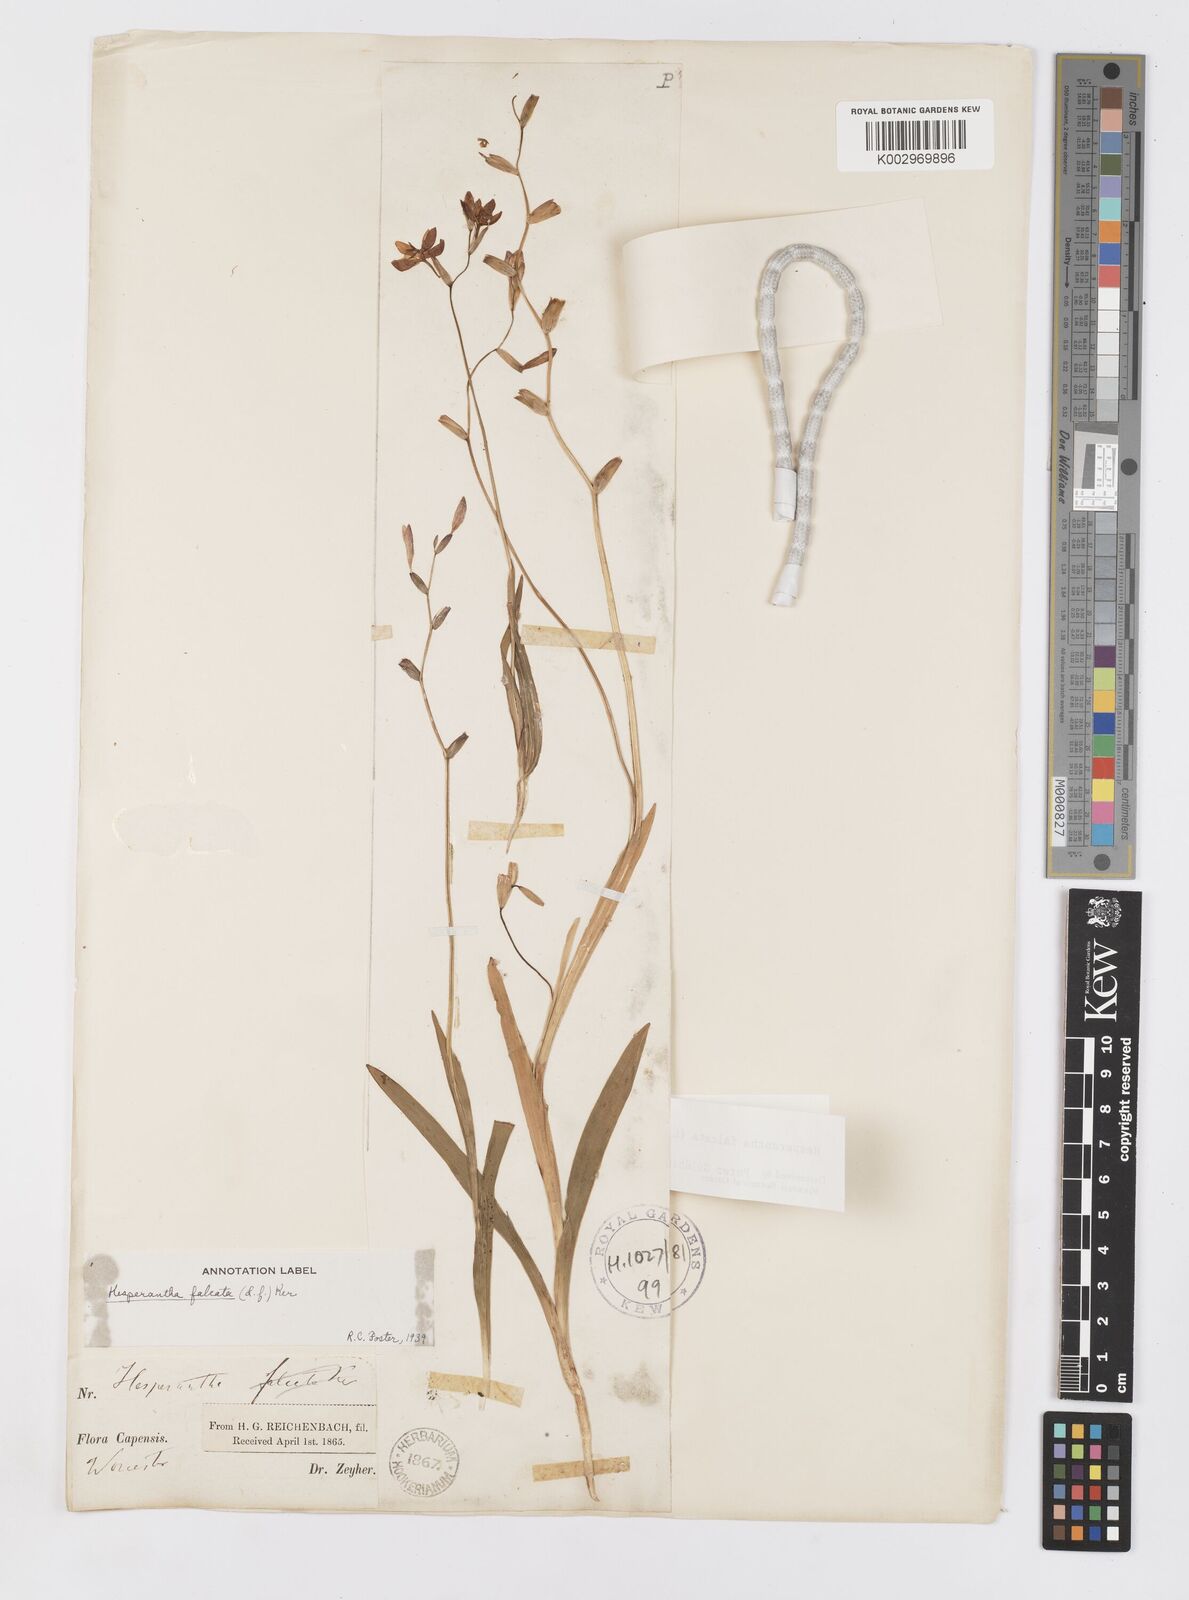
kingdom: Plantae
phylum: Tracheophyta
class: Liliopsida
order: Asparagales
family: Iridaceae
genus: Hesperantha
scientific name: Hesperantha falcata
